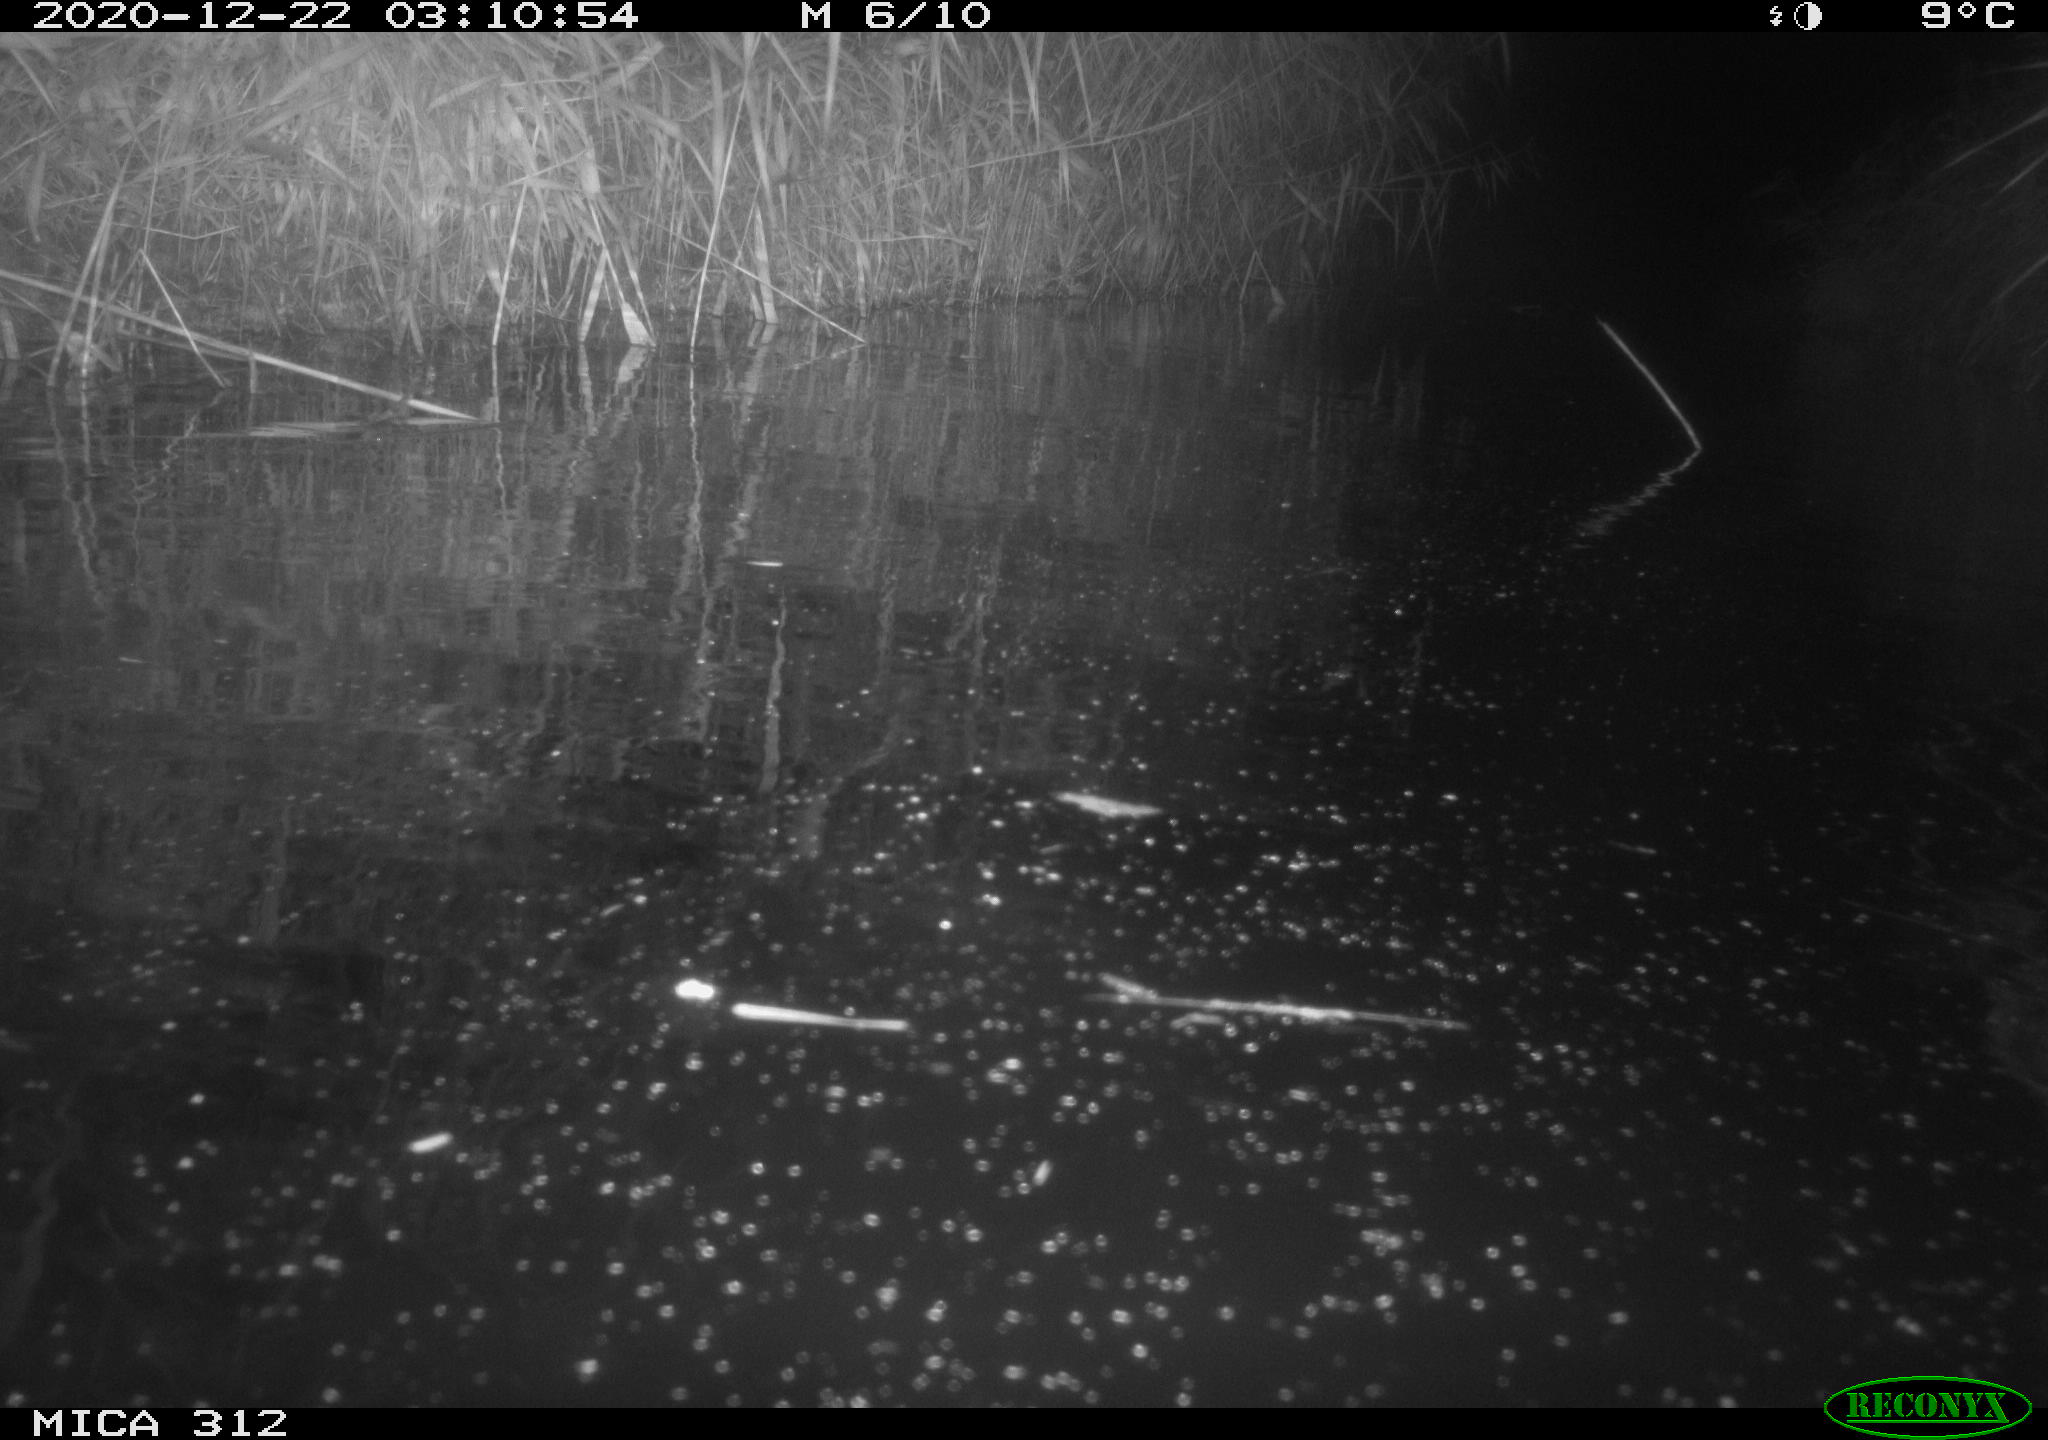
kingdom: Animalia
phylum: Chordata
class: Mammalia
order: Rodentia
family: Muridae
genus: Rattus
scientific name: Rattus norvegicus
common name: Brown rat
